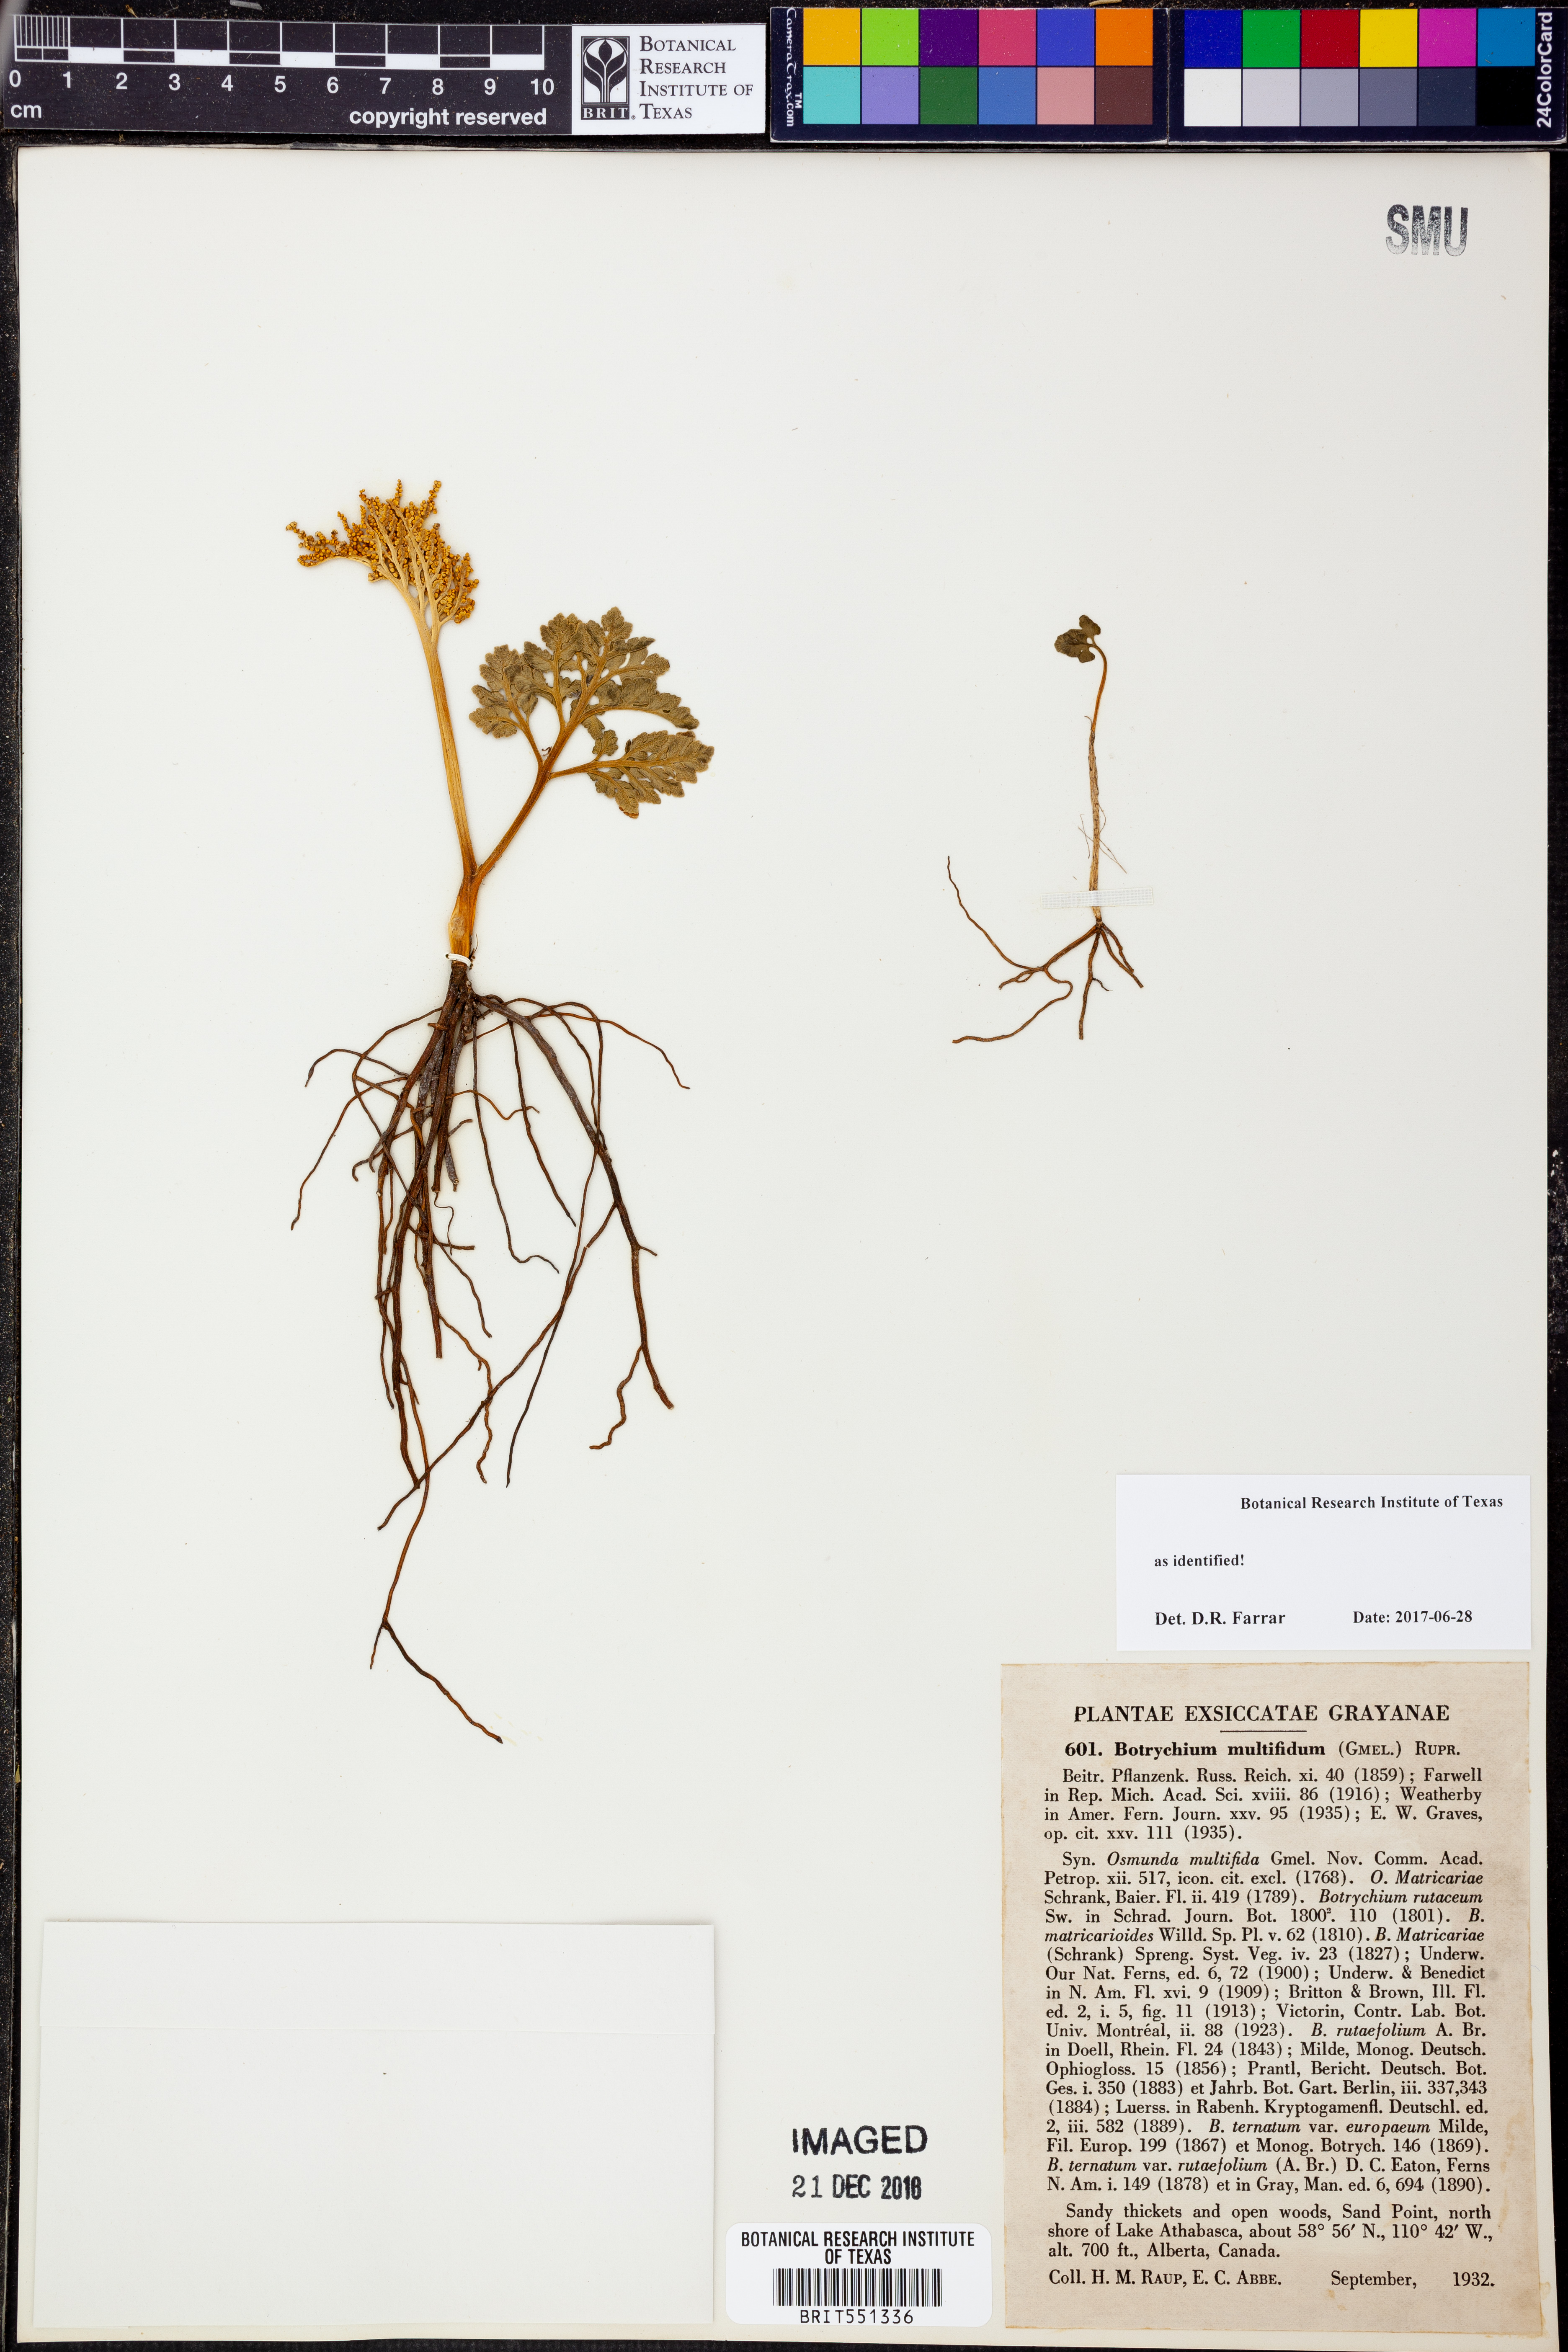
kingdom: Plantae
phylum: Tracheophyta
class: Polypodiopsida
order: Ophioglossales
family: Ophioglossaceae
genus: Sceptridium
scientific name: Sceptridium multifidum
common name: Leathery grape fern
